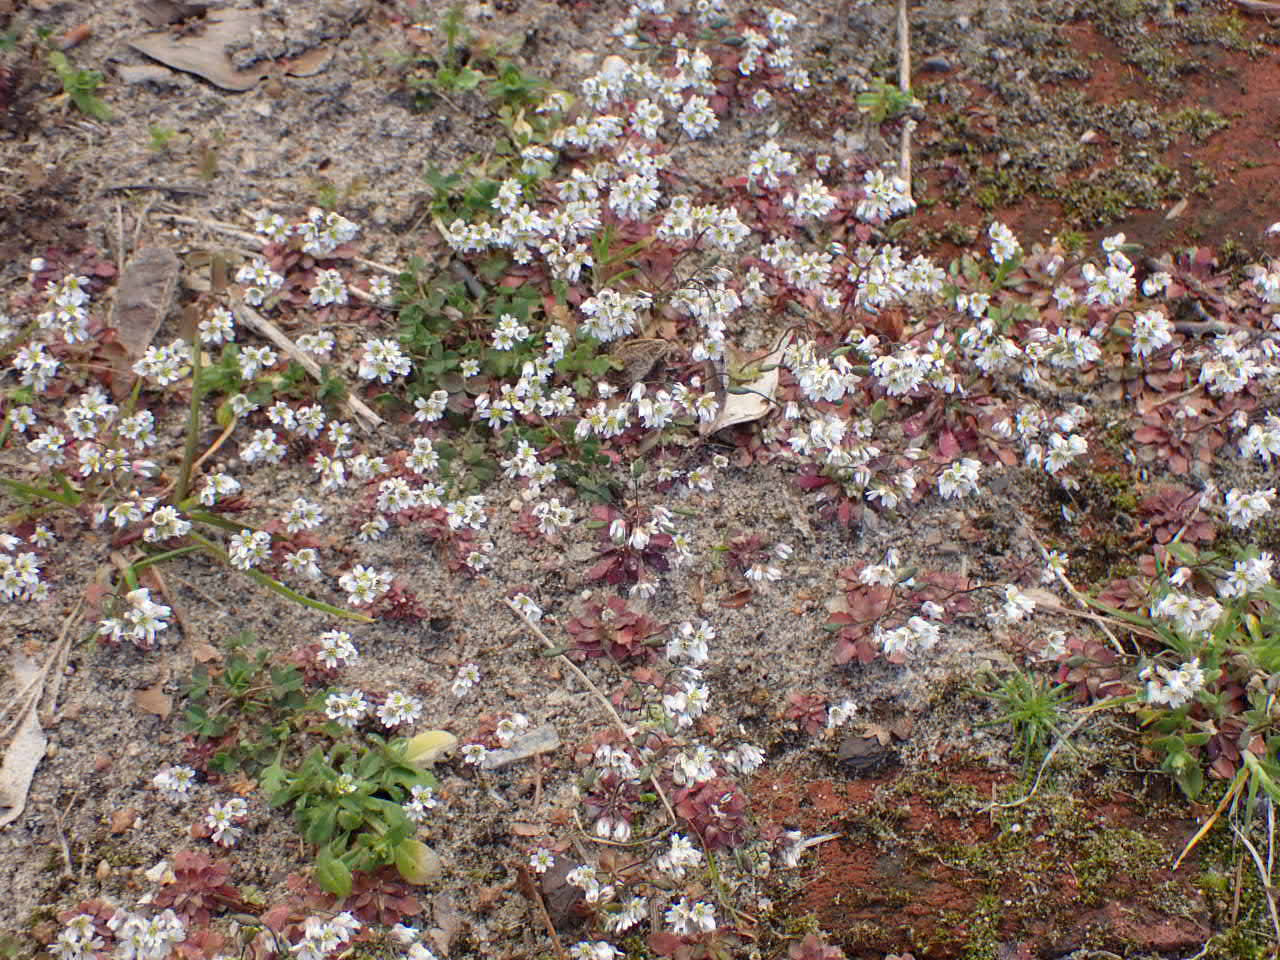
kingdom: Plantae
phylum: Tracheophyta
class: Magnoliopsida
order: Brassicales
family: Brassicaceae
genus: Draba
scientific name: Draba verna
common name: Vår-gæslingeblomst
